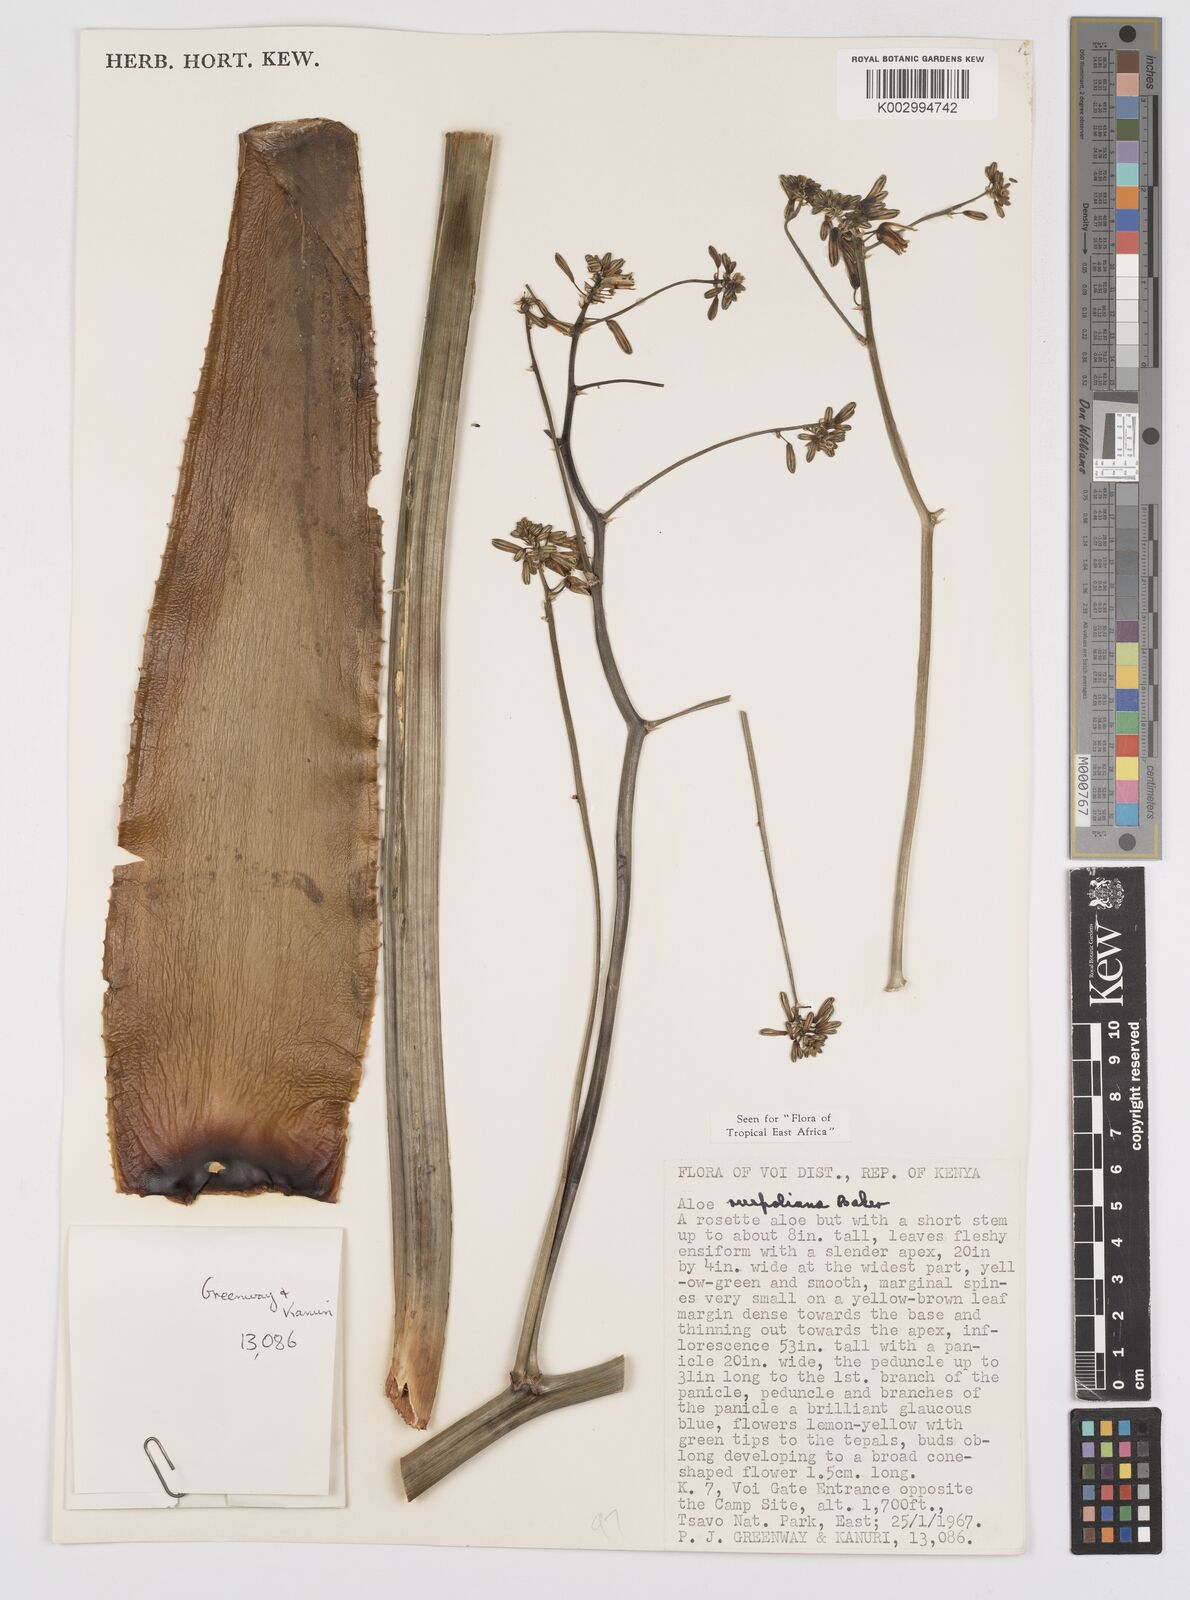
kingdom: Plantae
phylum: Tracheophyta
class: Liliopsida
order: Asparagales
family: Asphodelaceae
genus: Aloe
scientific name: Aloe ruspoliana
